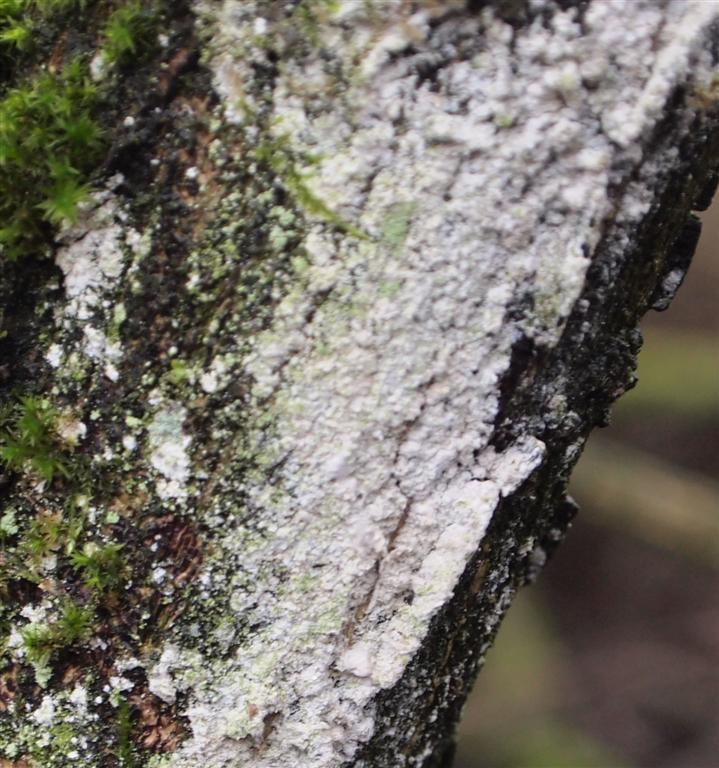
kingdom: Fungi
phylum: Basidiomycota
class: Agaricomycetes
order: Corticiales
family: Corticiaceae
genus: Lyomyces
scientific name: Lyomyces sambuci
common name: almindelig hyldehinde
